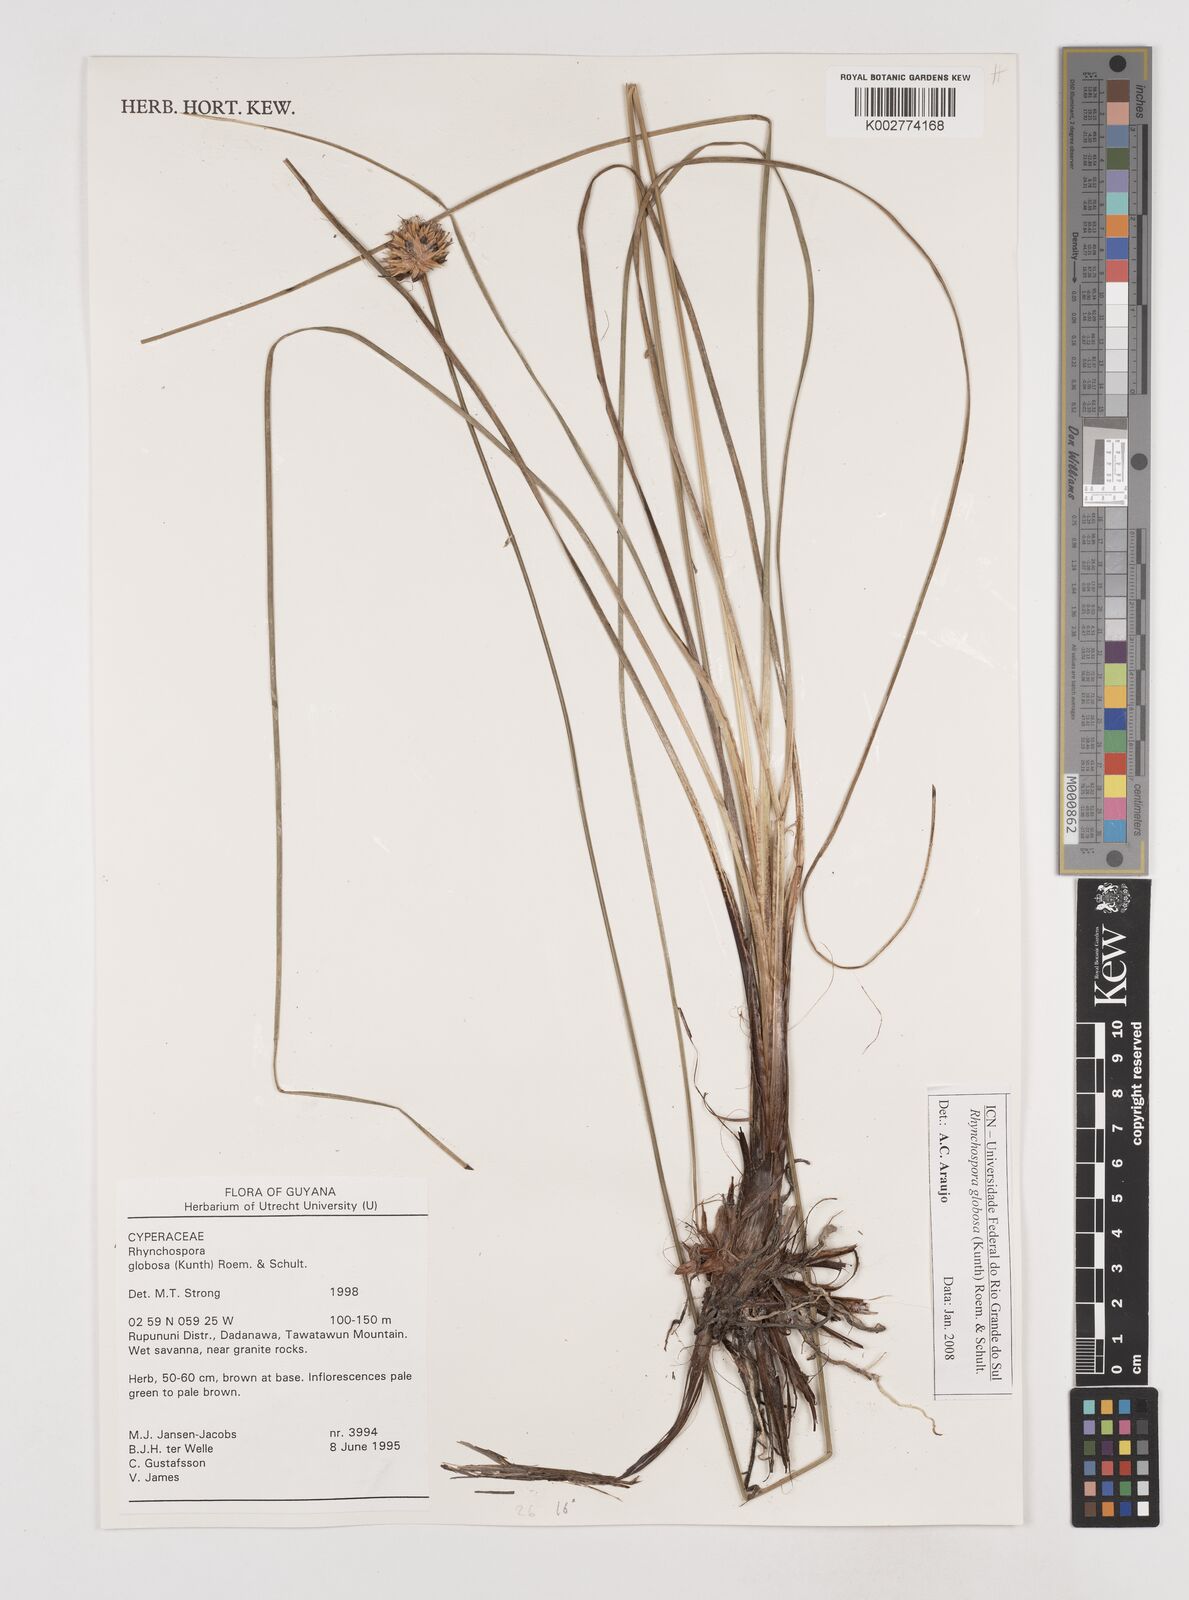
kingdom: Plantae
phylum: Tracheophyta
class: Liliopsida
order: Poales
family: Cyperaceae
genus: Rhynchospora
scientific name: Rhynchospora globosa
